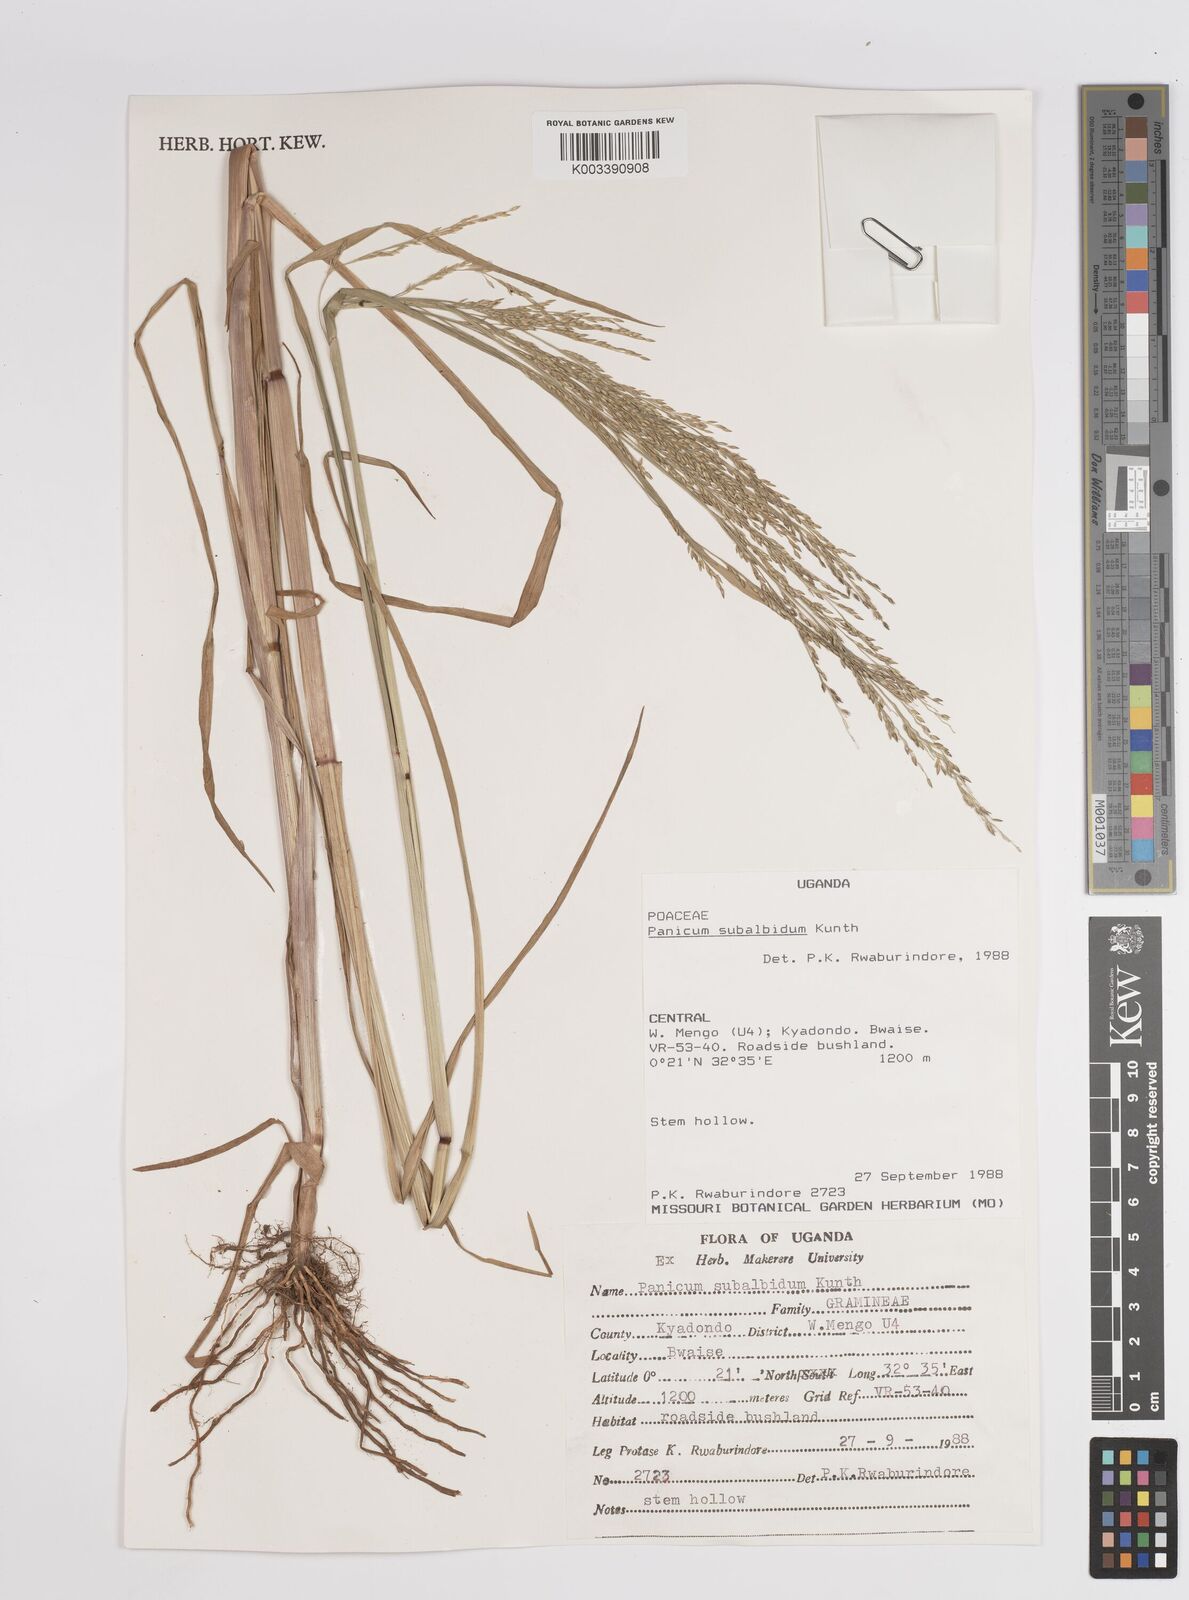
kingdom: Plantae
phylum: Tracheophyta
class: Liliopsida
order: Poales
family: Poaceae
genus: Panicum
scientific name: Panicum subalbidum
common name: Elbow buffalo grass
